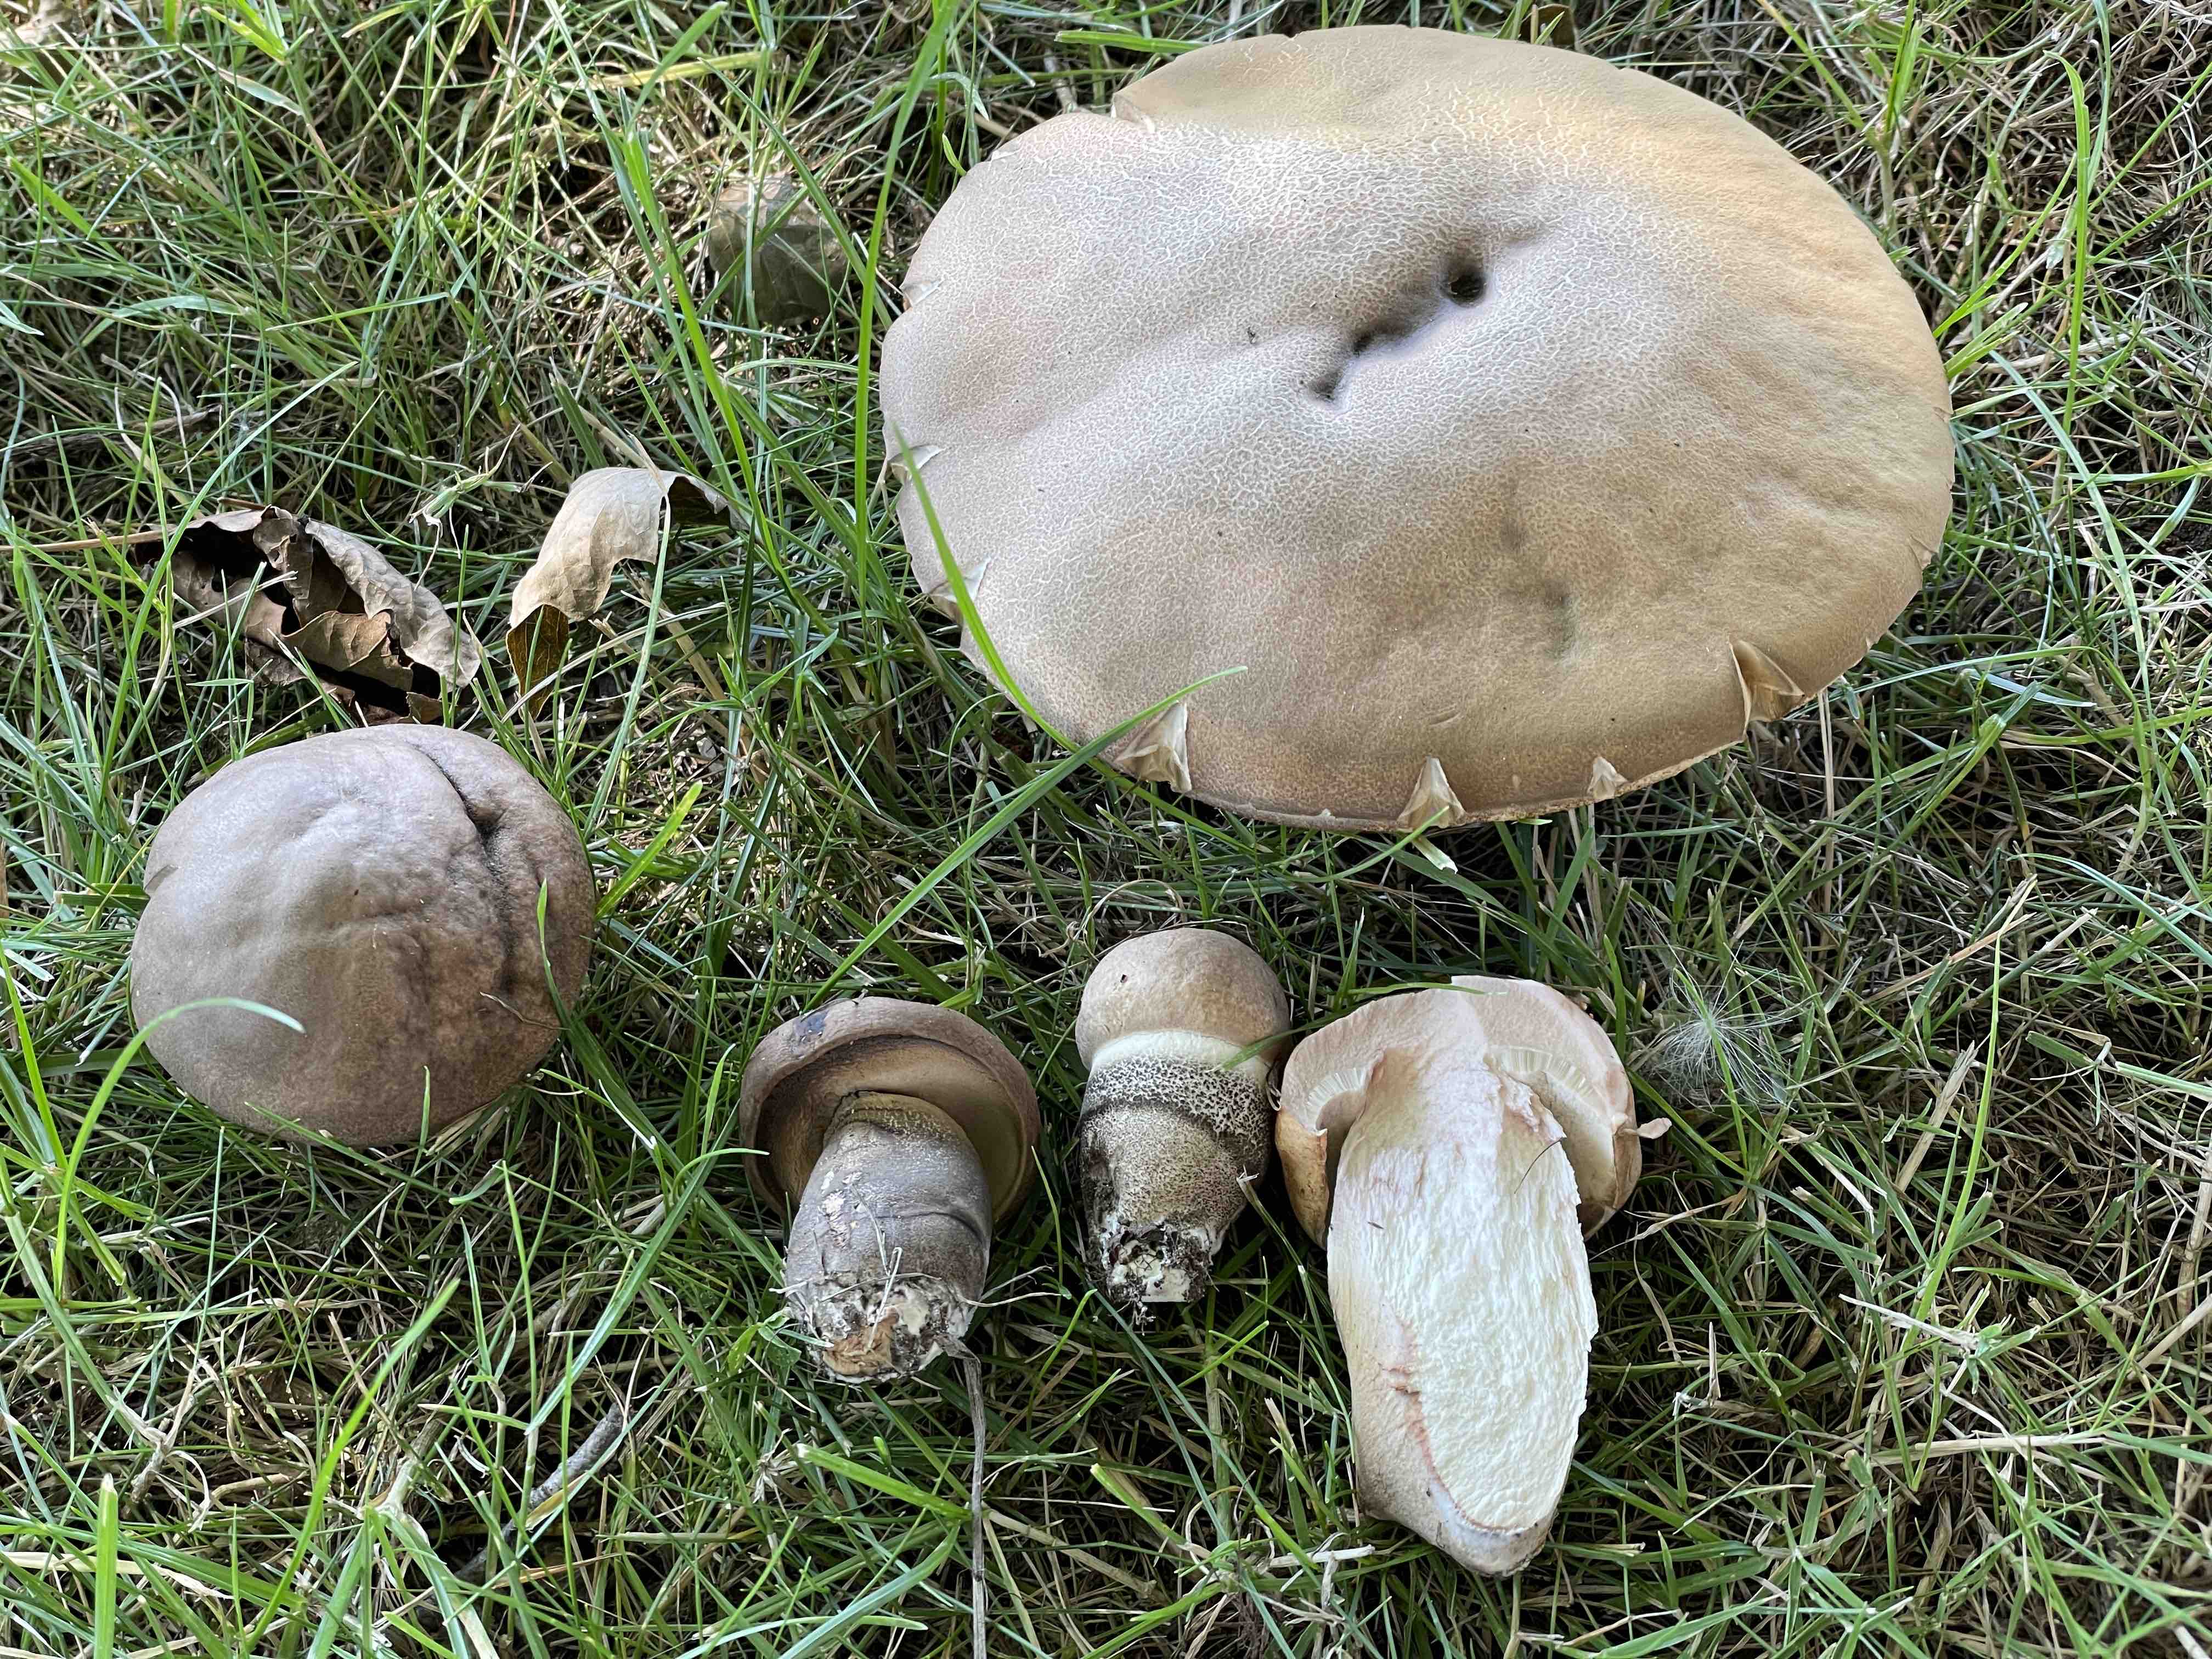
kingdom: Fungi
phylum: Basidiomycota
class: Agaricomycetes
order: Boletales
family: Boletaceae
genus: Leccinum
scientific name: Leccinum duriusculum
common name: poppel-skælrørhat
